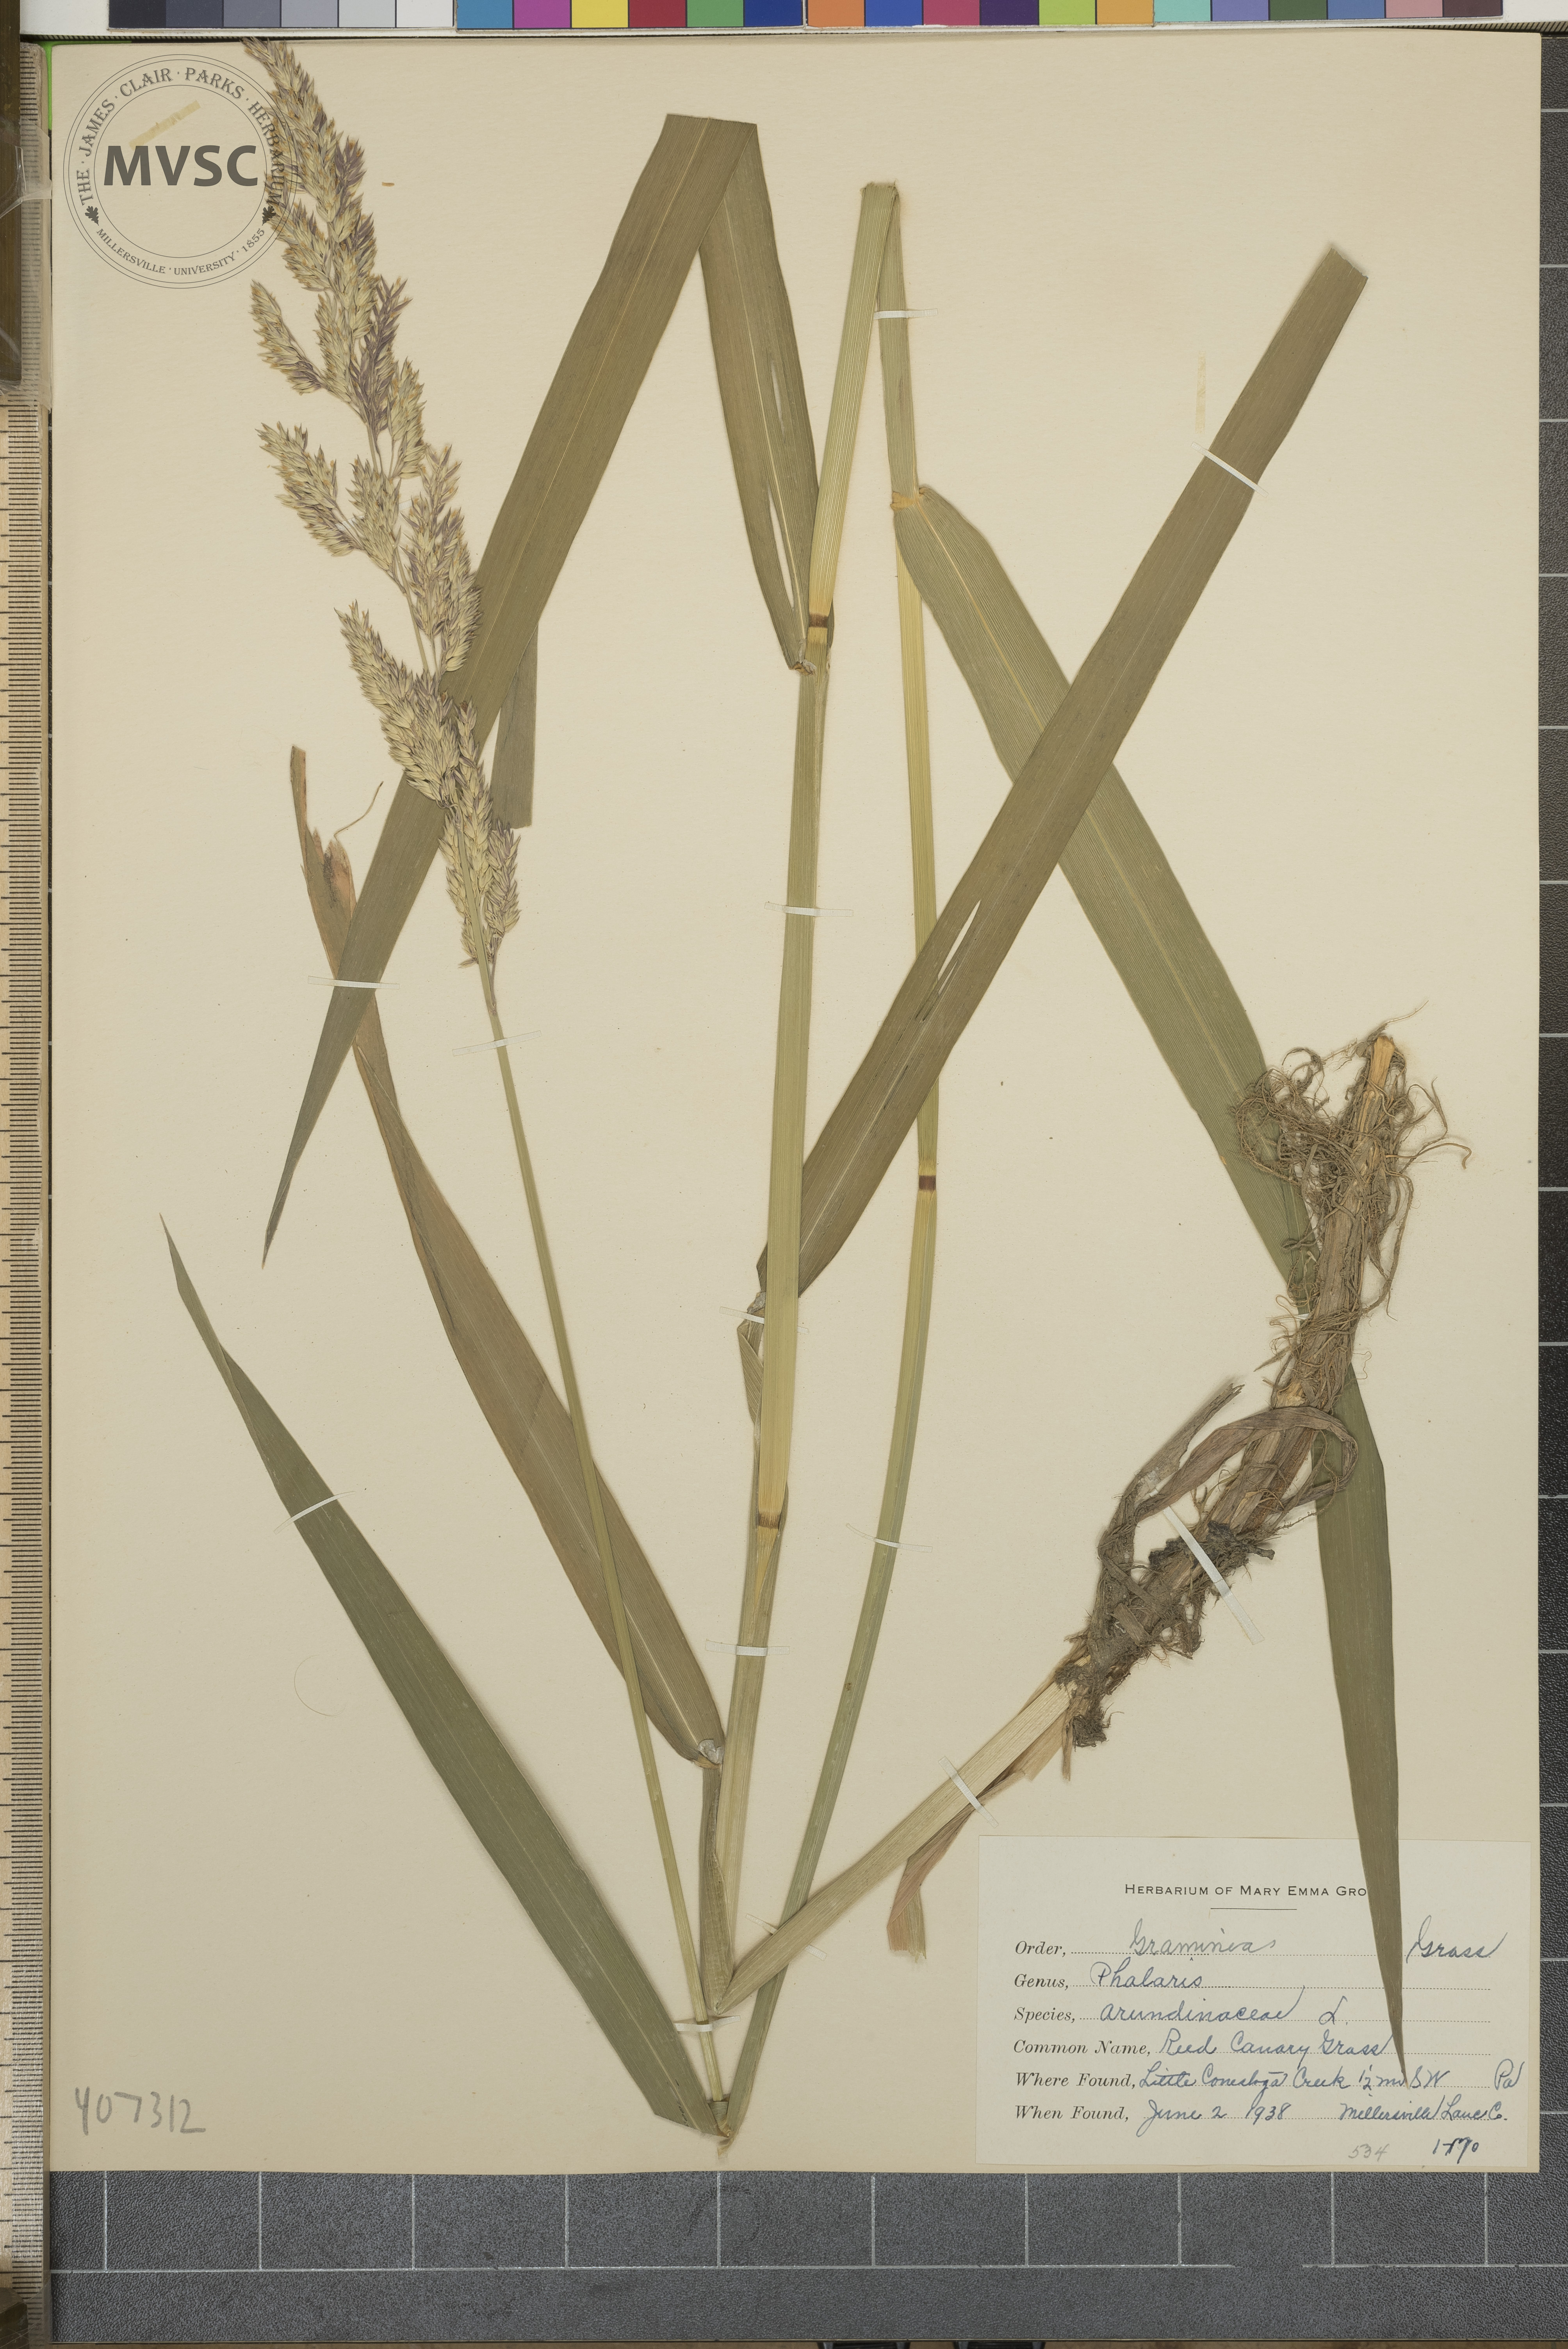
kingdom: Plantae
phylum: Tracheophyta
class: Liliopsida
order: Poales
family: Poaceae
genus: Phalaris
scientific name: Phalaris arundinacea
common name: reed canary-grass
